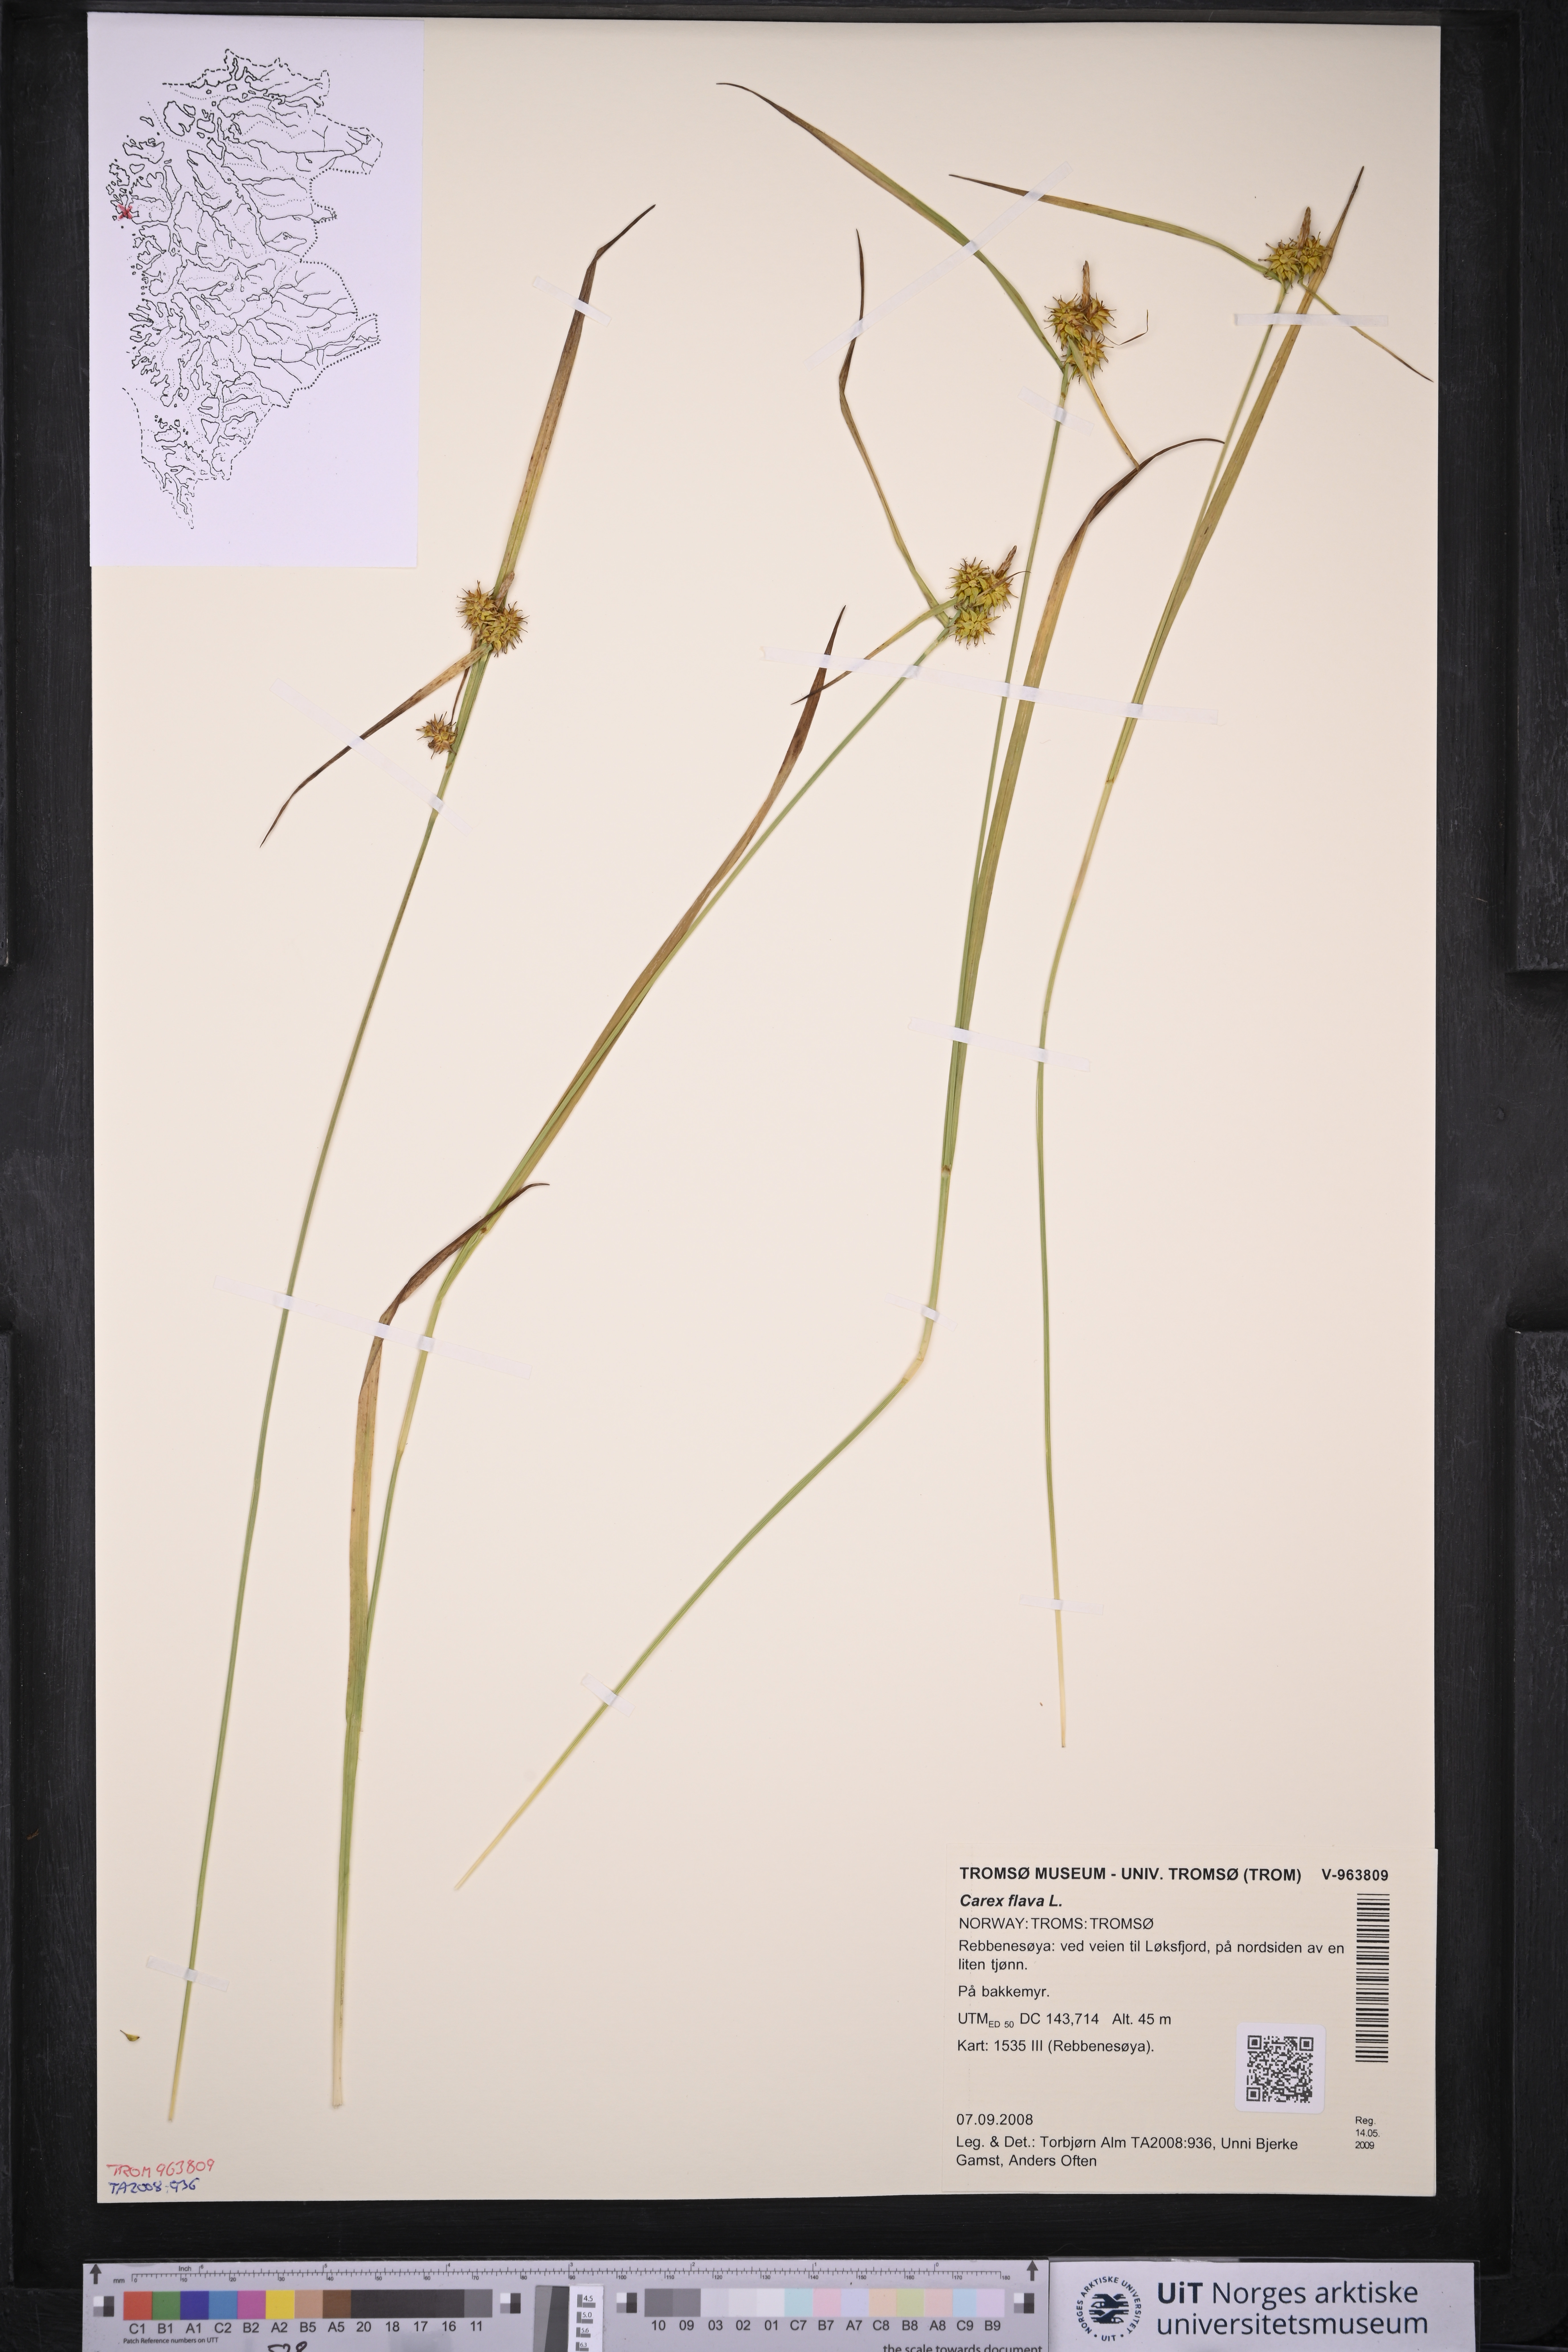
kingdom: Plantae
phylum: Tracheophyta
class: Liliopsida
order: Poales
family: Cyperaceae
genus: Carex
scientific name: Carex flava
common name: Large yellow-sedge
